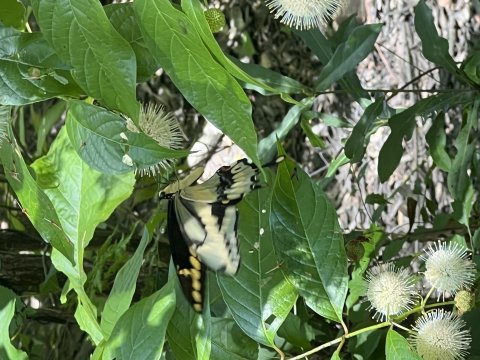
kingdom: Animalia
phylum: Arthropoda
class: Insecta
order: Lepidoptera
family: Papilionidae
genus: Papilio
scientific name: Papilio cresphontes
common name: Eastern Giant Swallowtail
